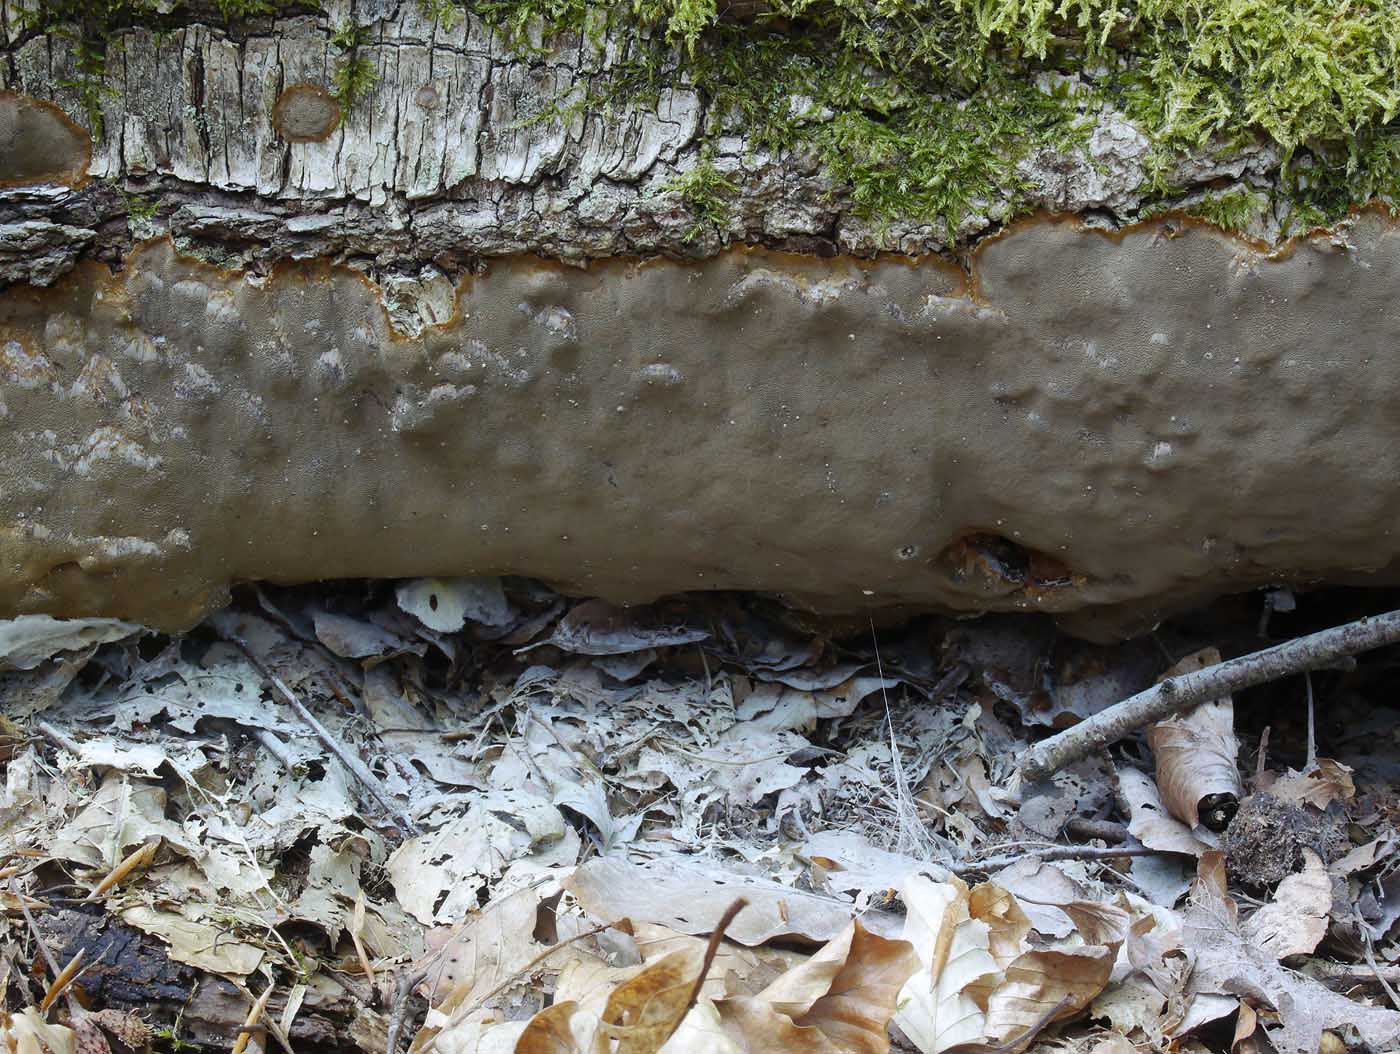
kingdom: Fungi
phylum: Basidiomycota
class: Agaricomycetes
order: Hymenochaetales
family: Hymenochaetaceae
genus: Phellinus
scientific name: Phellinus laevigatus
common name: glat ildporesvamp
